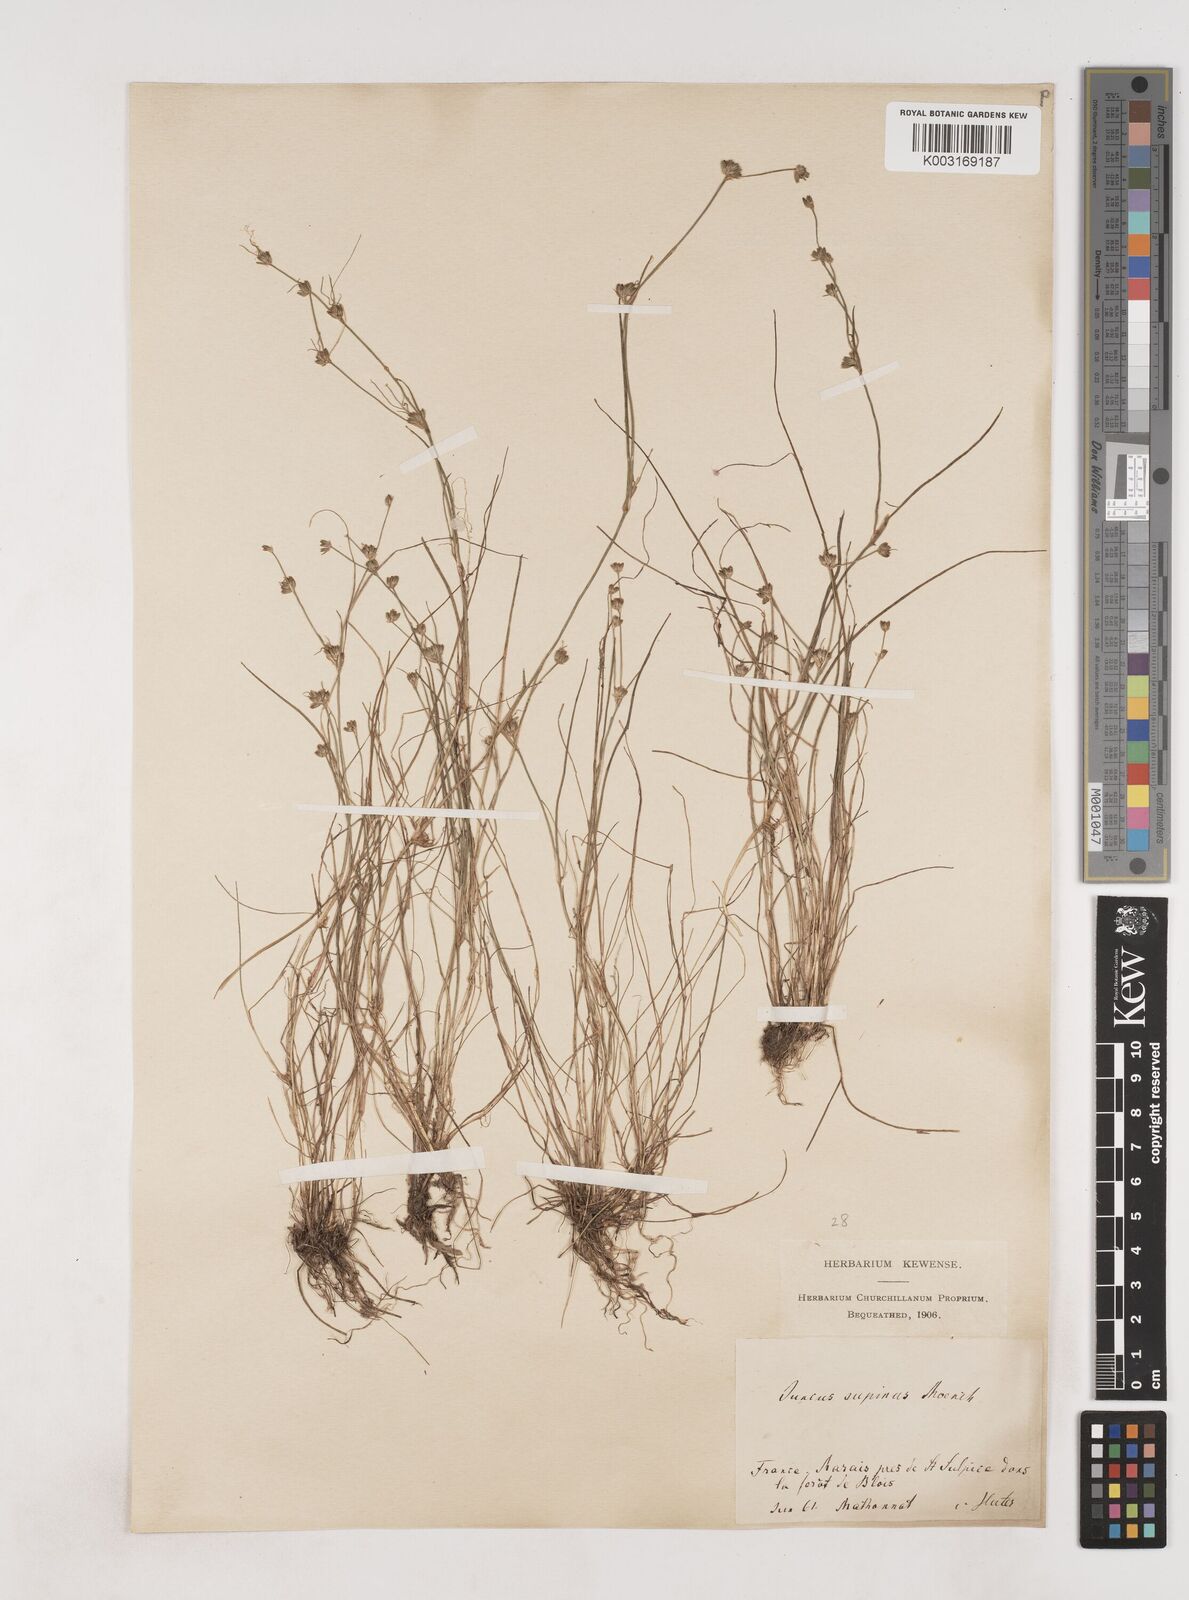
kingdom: Plantae
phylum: Tracheophyta
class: Liliopsida
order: Poales
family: Juncaceae
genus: Juncus
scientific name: Juncus bulbosus
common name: Bulbous rush
